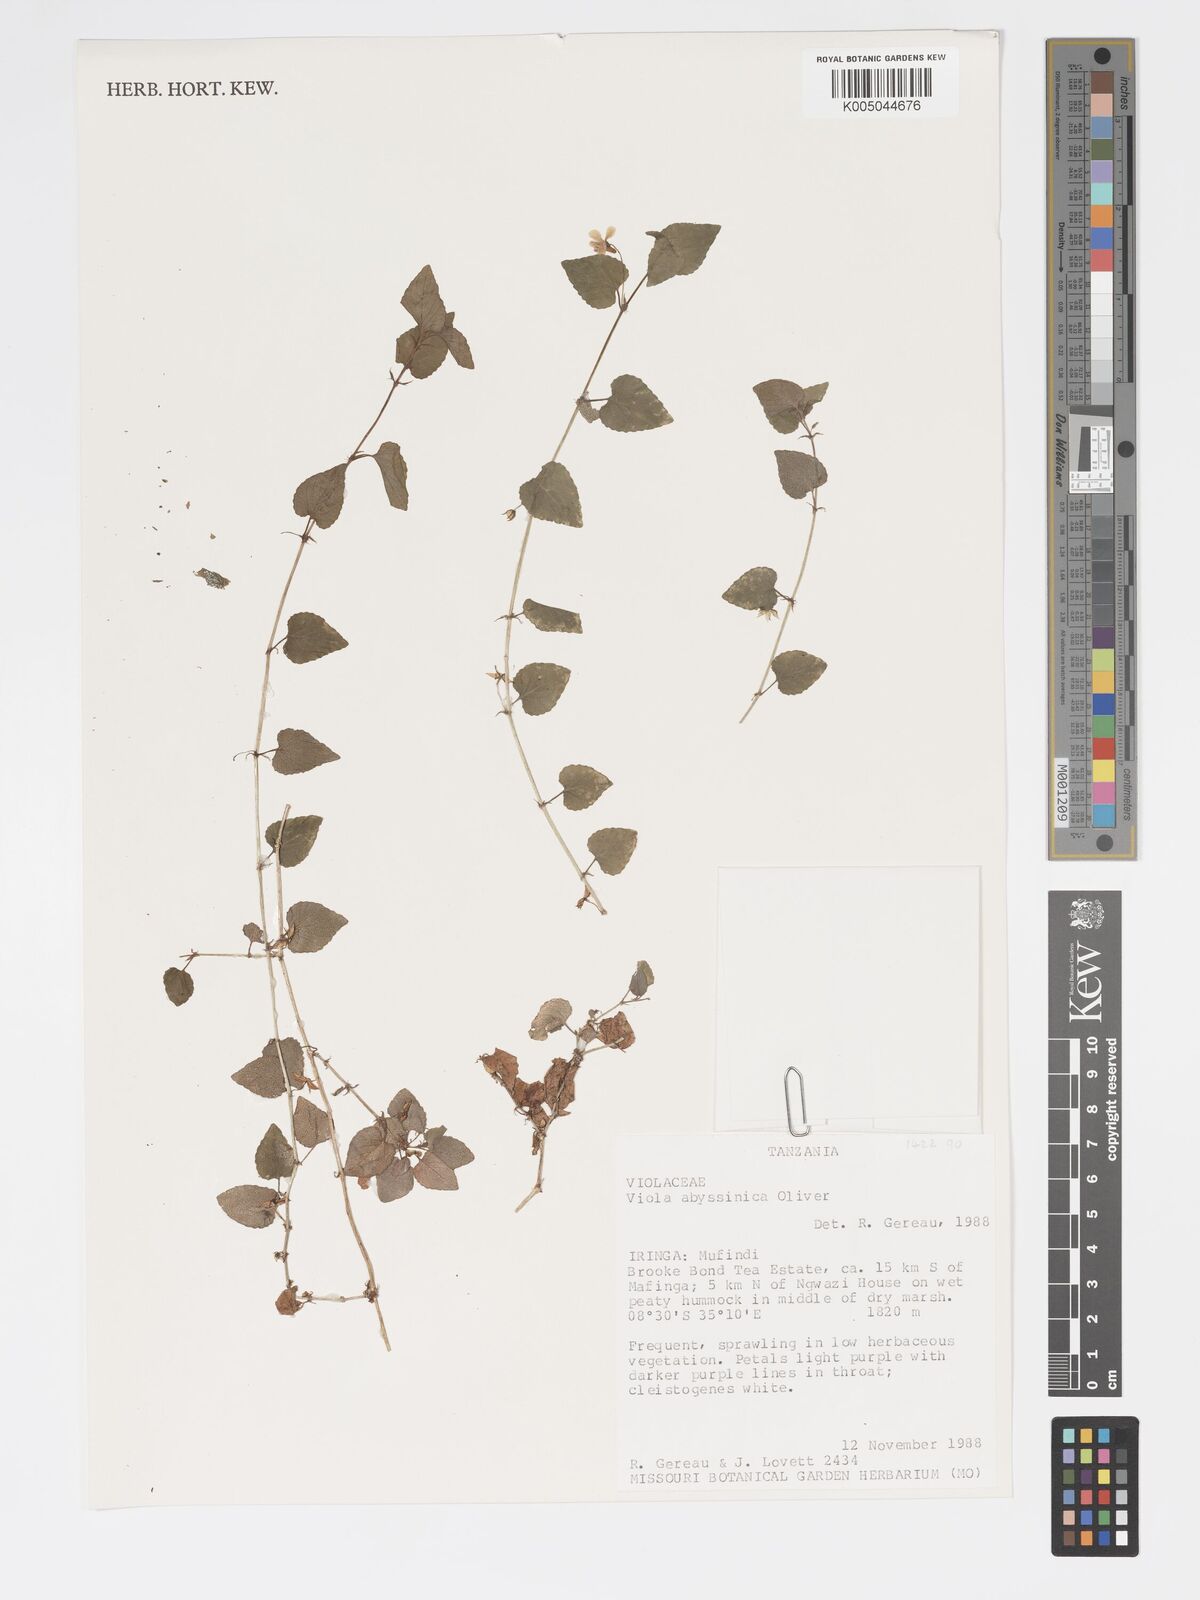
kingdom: Plantae
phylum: Tracheophyta
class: Magnoliopsida
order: Malpighiales
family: Violaceae
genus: Viola
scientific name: Viola abyssinica
